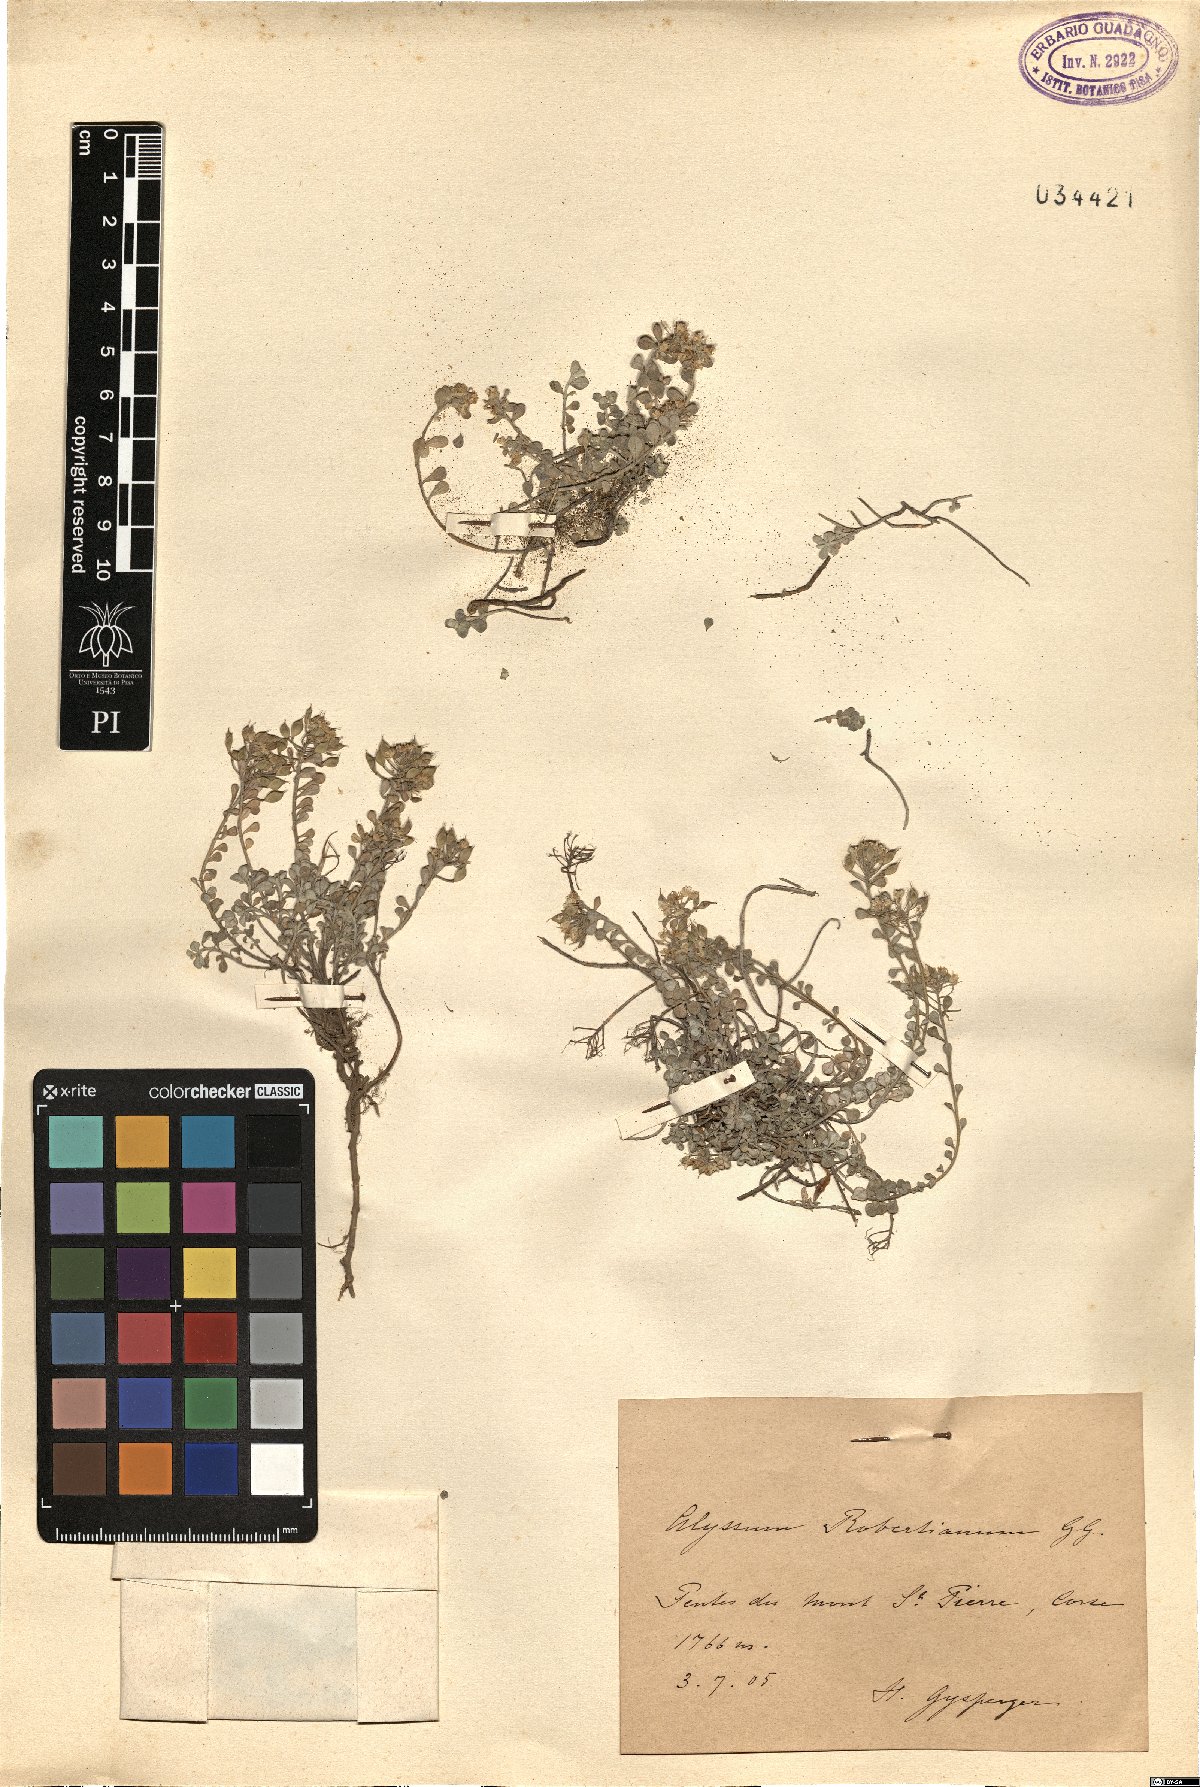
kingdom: Plantae
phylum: Tracheophyta
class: Magnoliopsida
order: Brassicales
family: Brassicaceae
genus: Odontarrhena
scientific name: Odontarrhena robertiana
